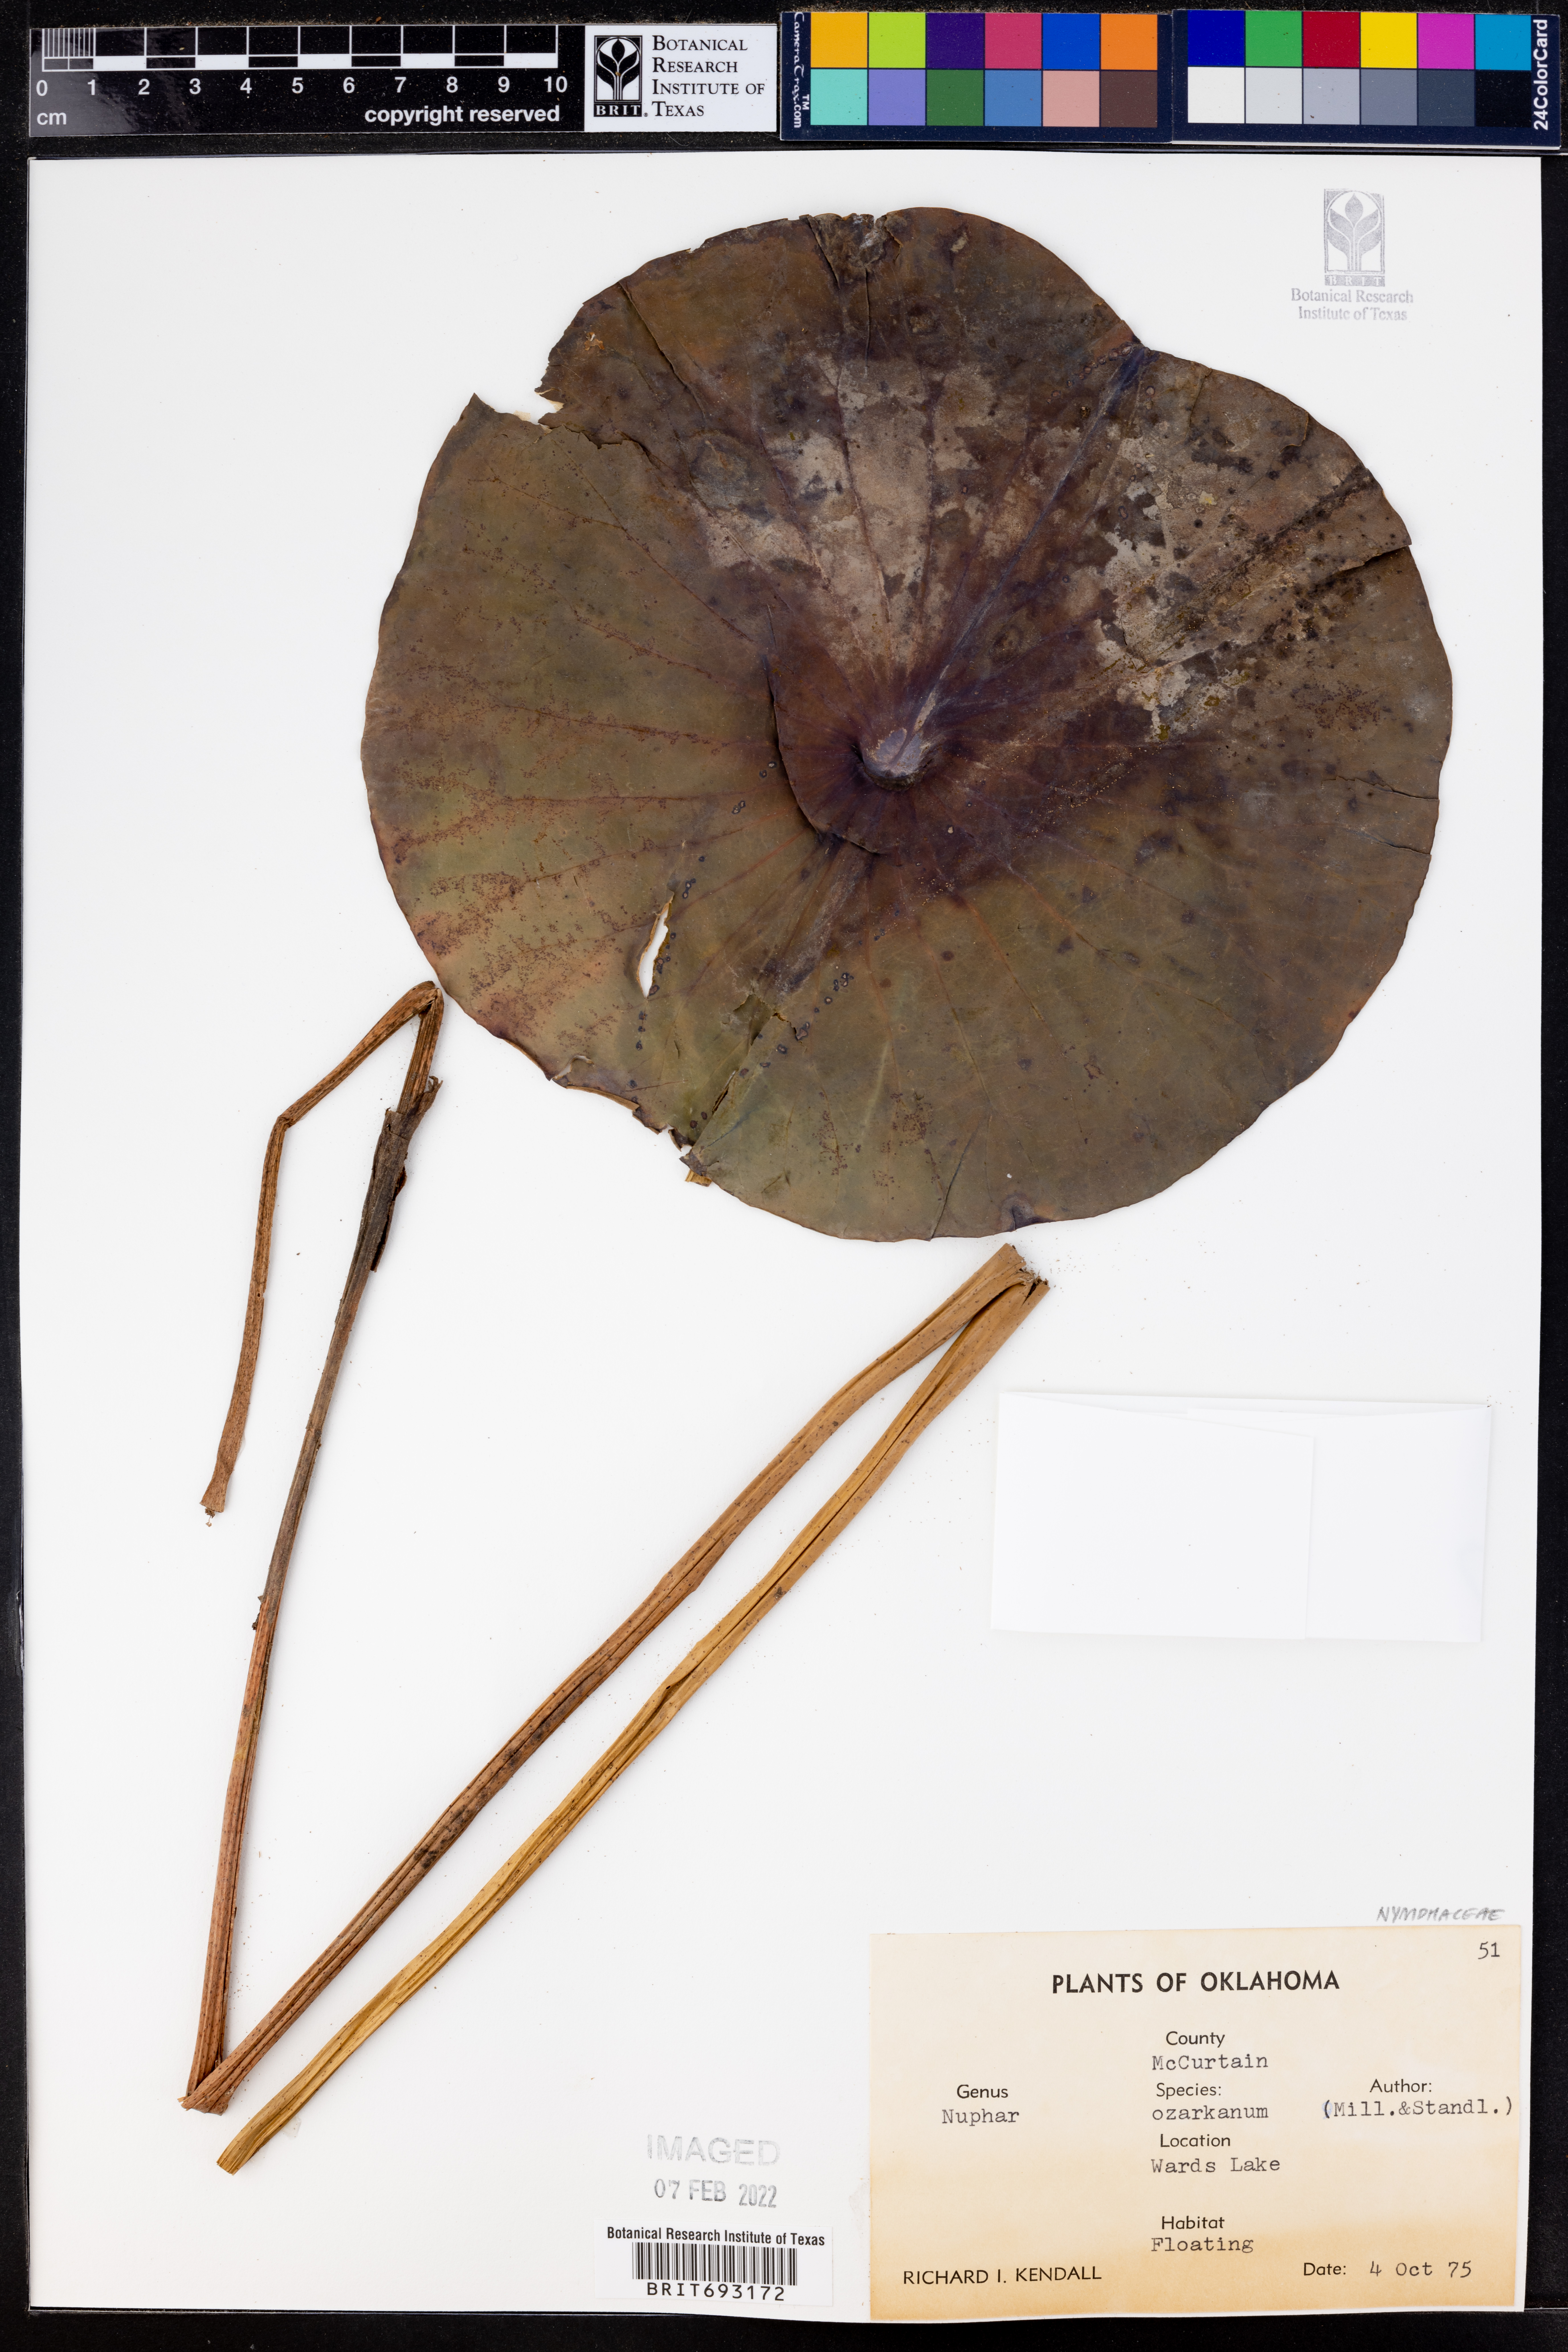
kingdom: Plantae
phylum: Tracheophyta
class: Magnoliopsida
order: Nymphaeales
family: Nymphaeaceae
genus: Nuphar
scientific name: Nuphar advena
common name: Spatter-dock
